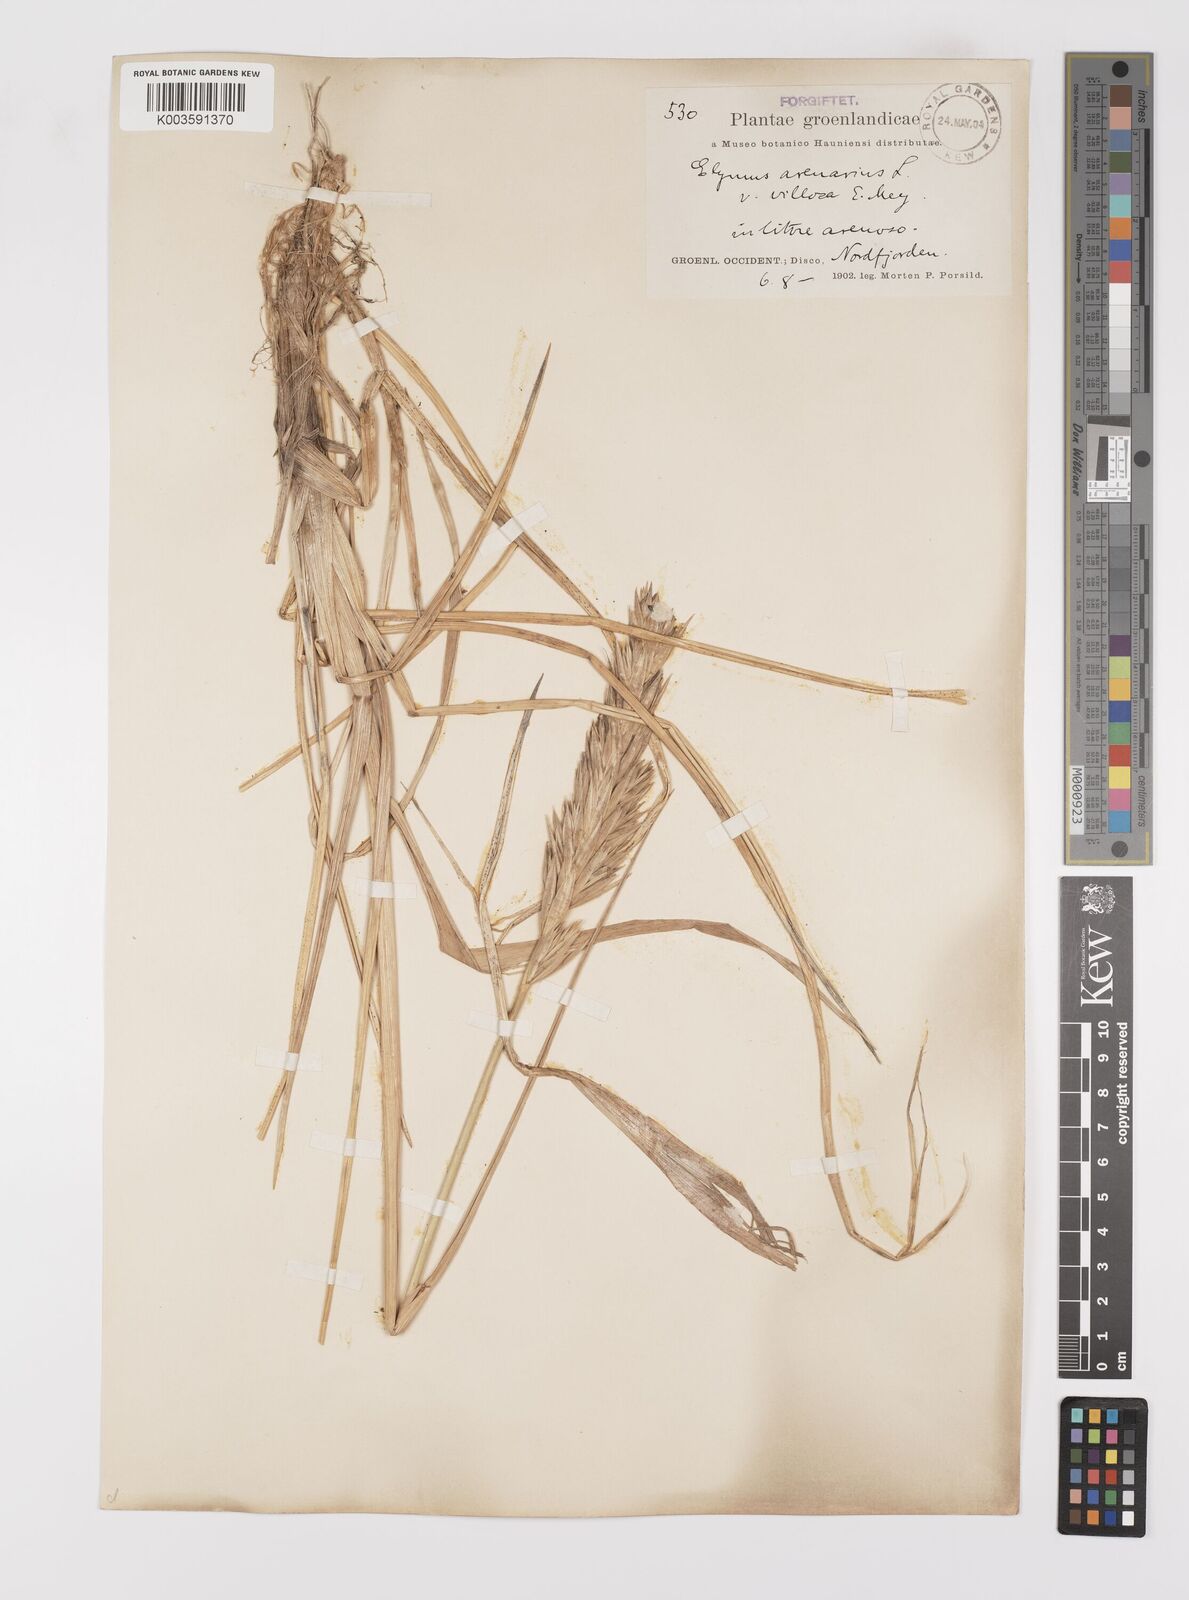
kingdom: Plantae
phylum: Tracheophyta
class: Liliopsida
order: Poales
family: Poaceae
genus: Leymus
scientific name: Leymus mollis
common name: American dune grass
